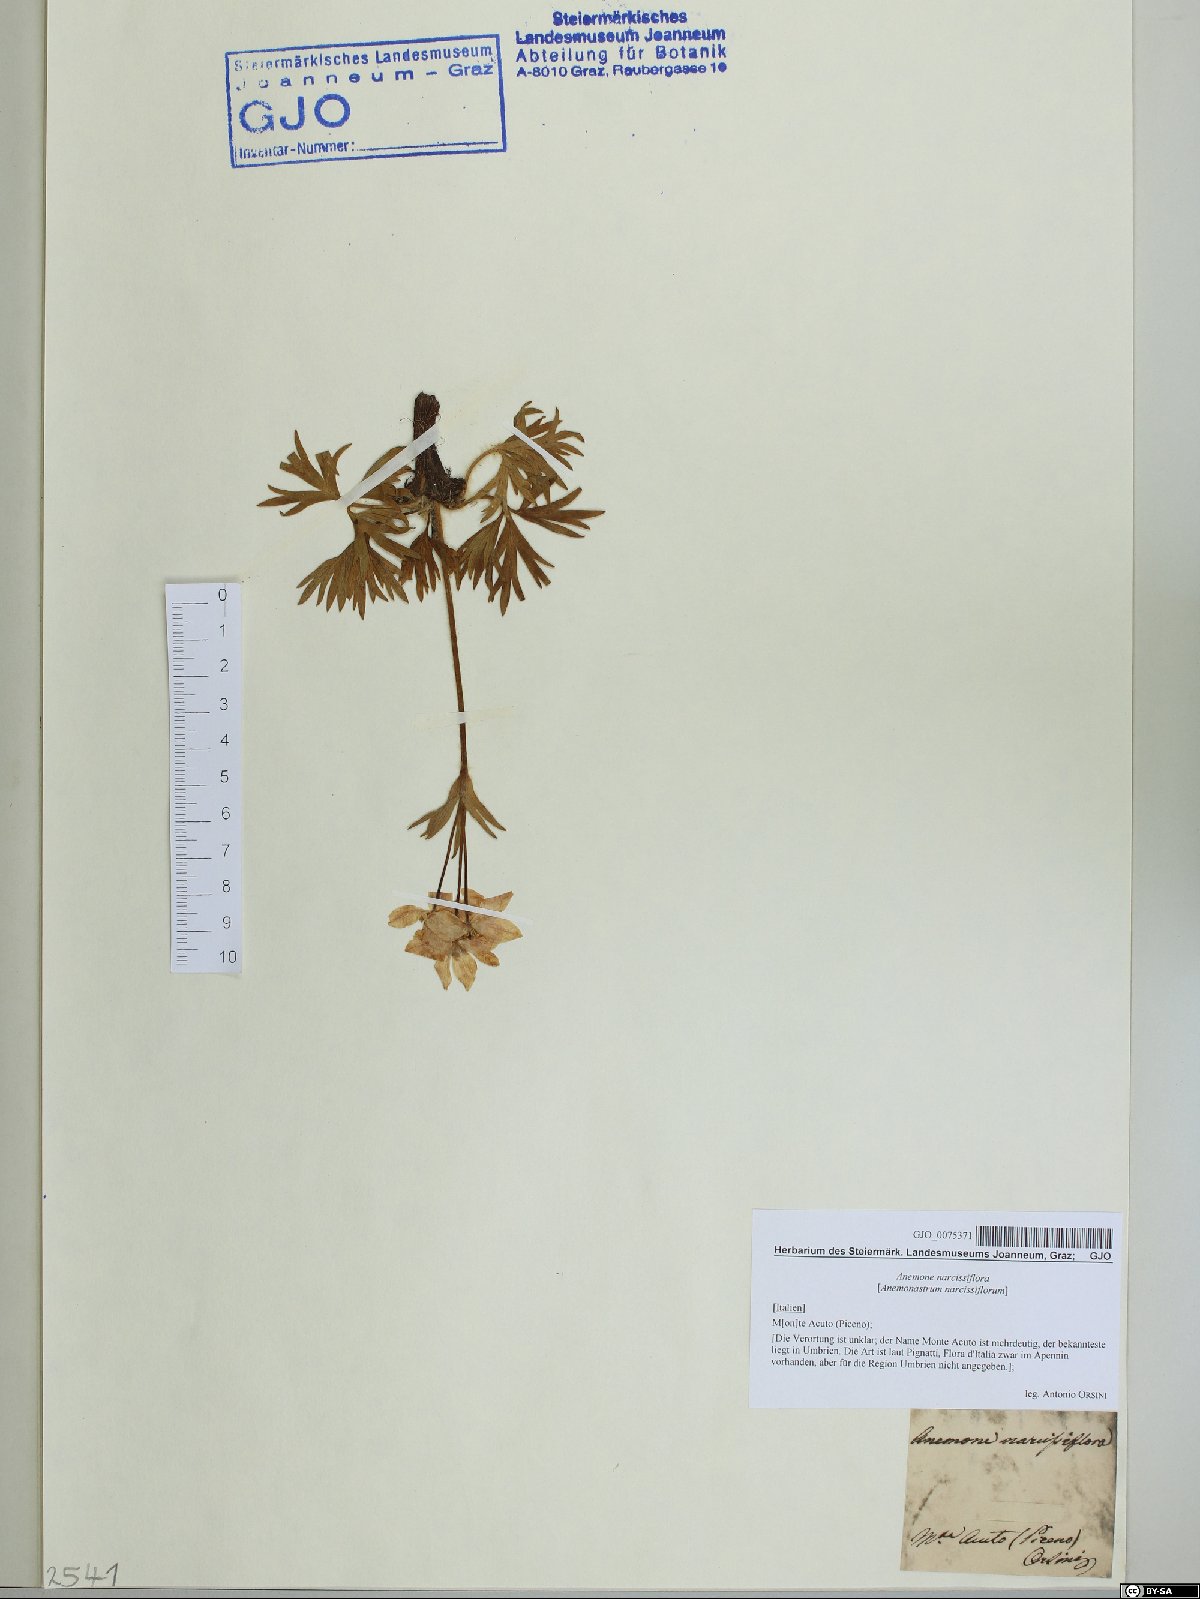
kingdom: Plantae
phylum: Tracheophyta
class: Magnoliopsida
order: Ranunculales
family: Ranunculaceae
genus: Anemonastrum
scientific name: Anemonastrum narcissiflorum
